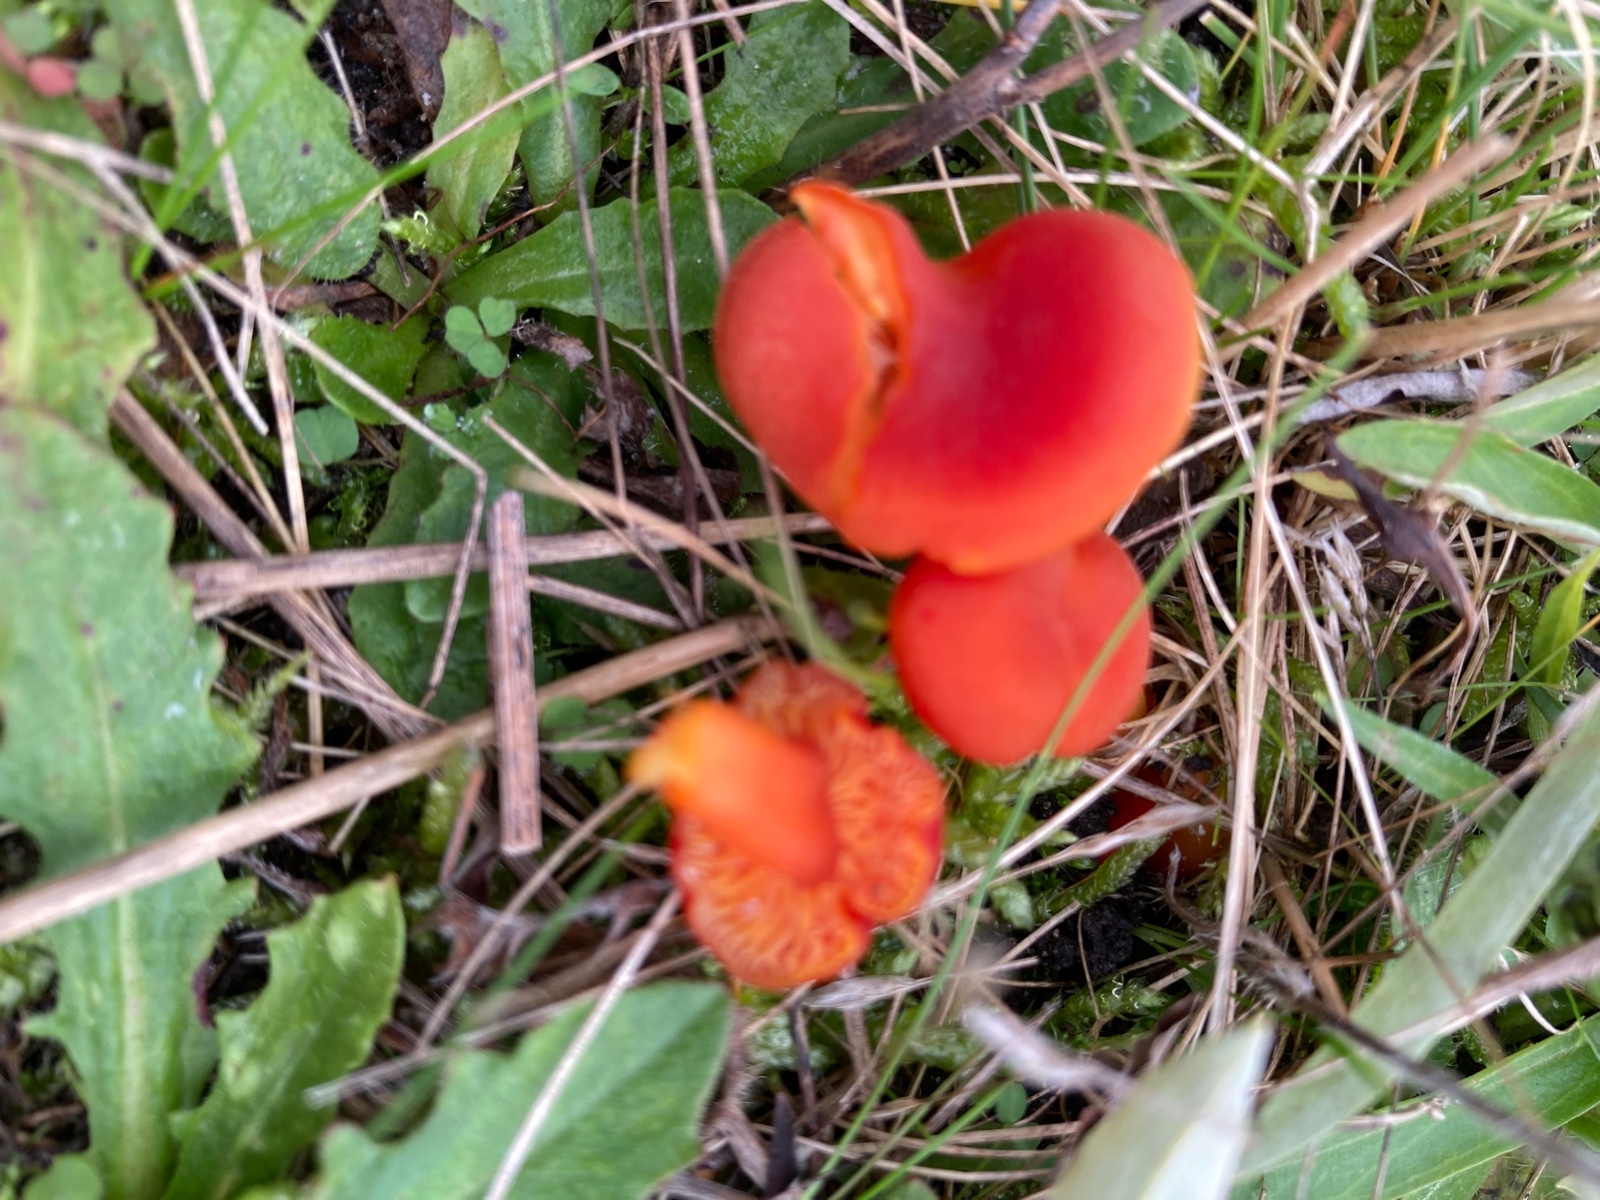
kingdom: Fungi
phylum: Basidiomycota
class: Agaricomycetes
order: Agaricales
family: Hygrophoraceae
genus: Hygrocybe
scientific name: Hygrocybe miniata
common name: mønje-vokshat
